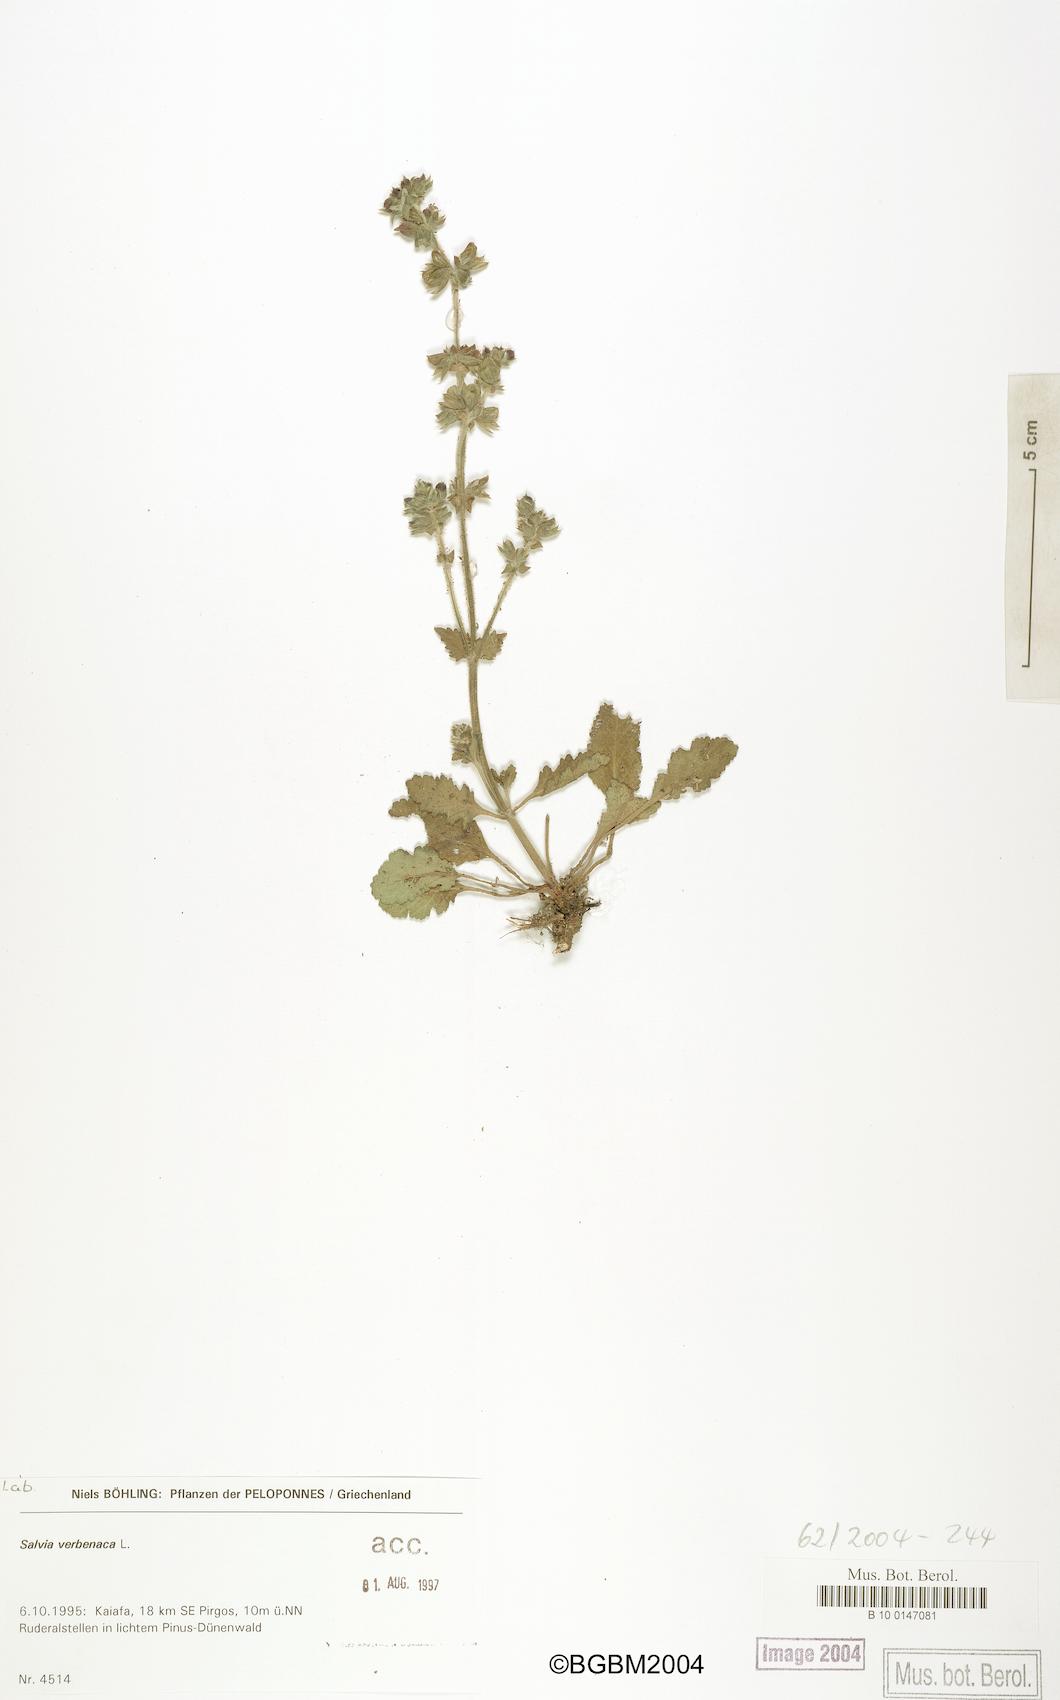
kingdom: Plantae
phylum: Tracheophyta
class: Magnoliopsida
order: Lamiales
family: Lamiaceae
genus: Salvia
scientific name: Salvia verbenaca
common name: Wild clary
